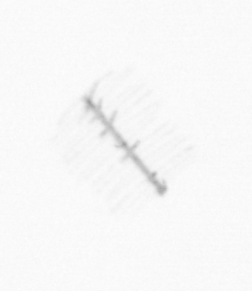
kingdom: Chromista
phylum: Ochrophyta
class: Bacillariophyceae
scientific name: Bacillariophyceae
